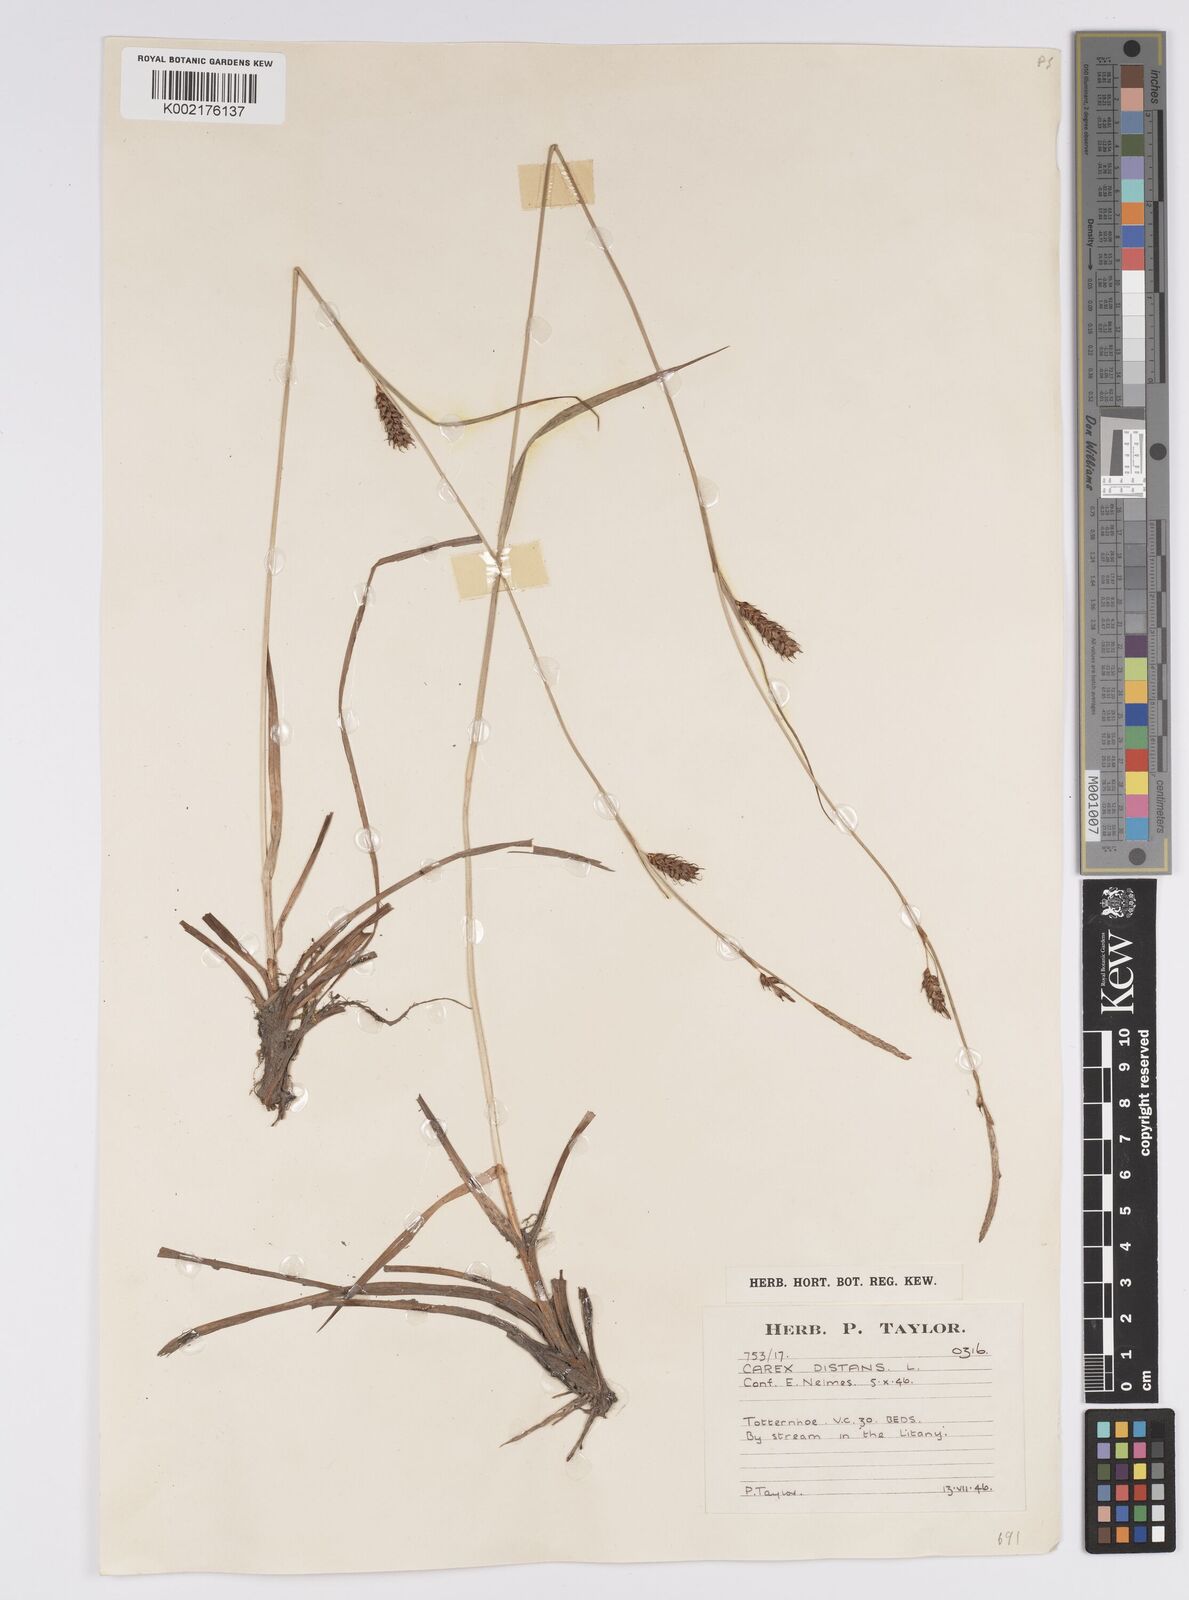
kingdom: Plantae
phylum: Tracheophyta
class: Liliopsida
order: Poales
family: Cyperaceae
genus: Carex
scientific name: Carex distans
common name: Distant sedge
